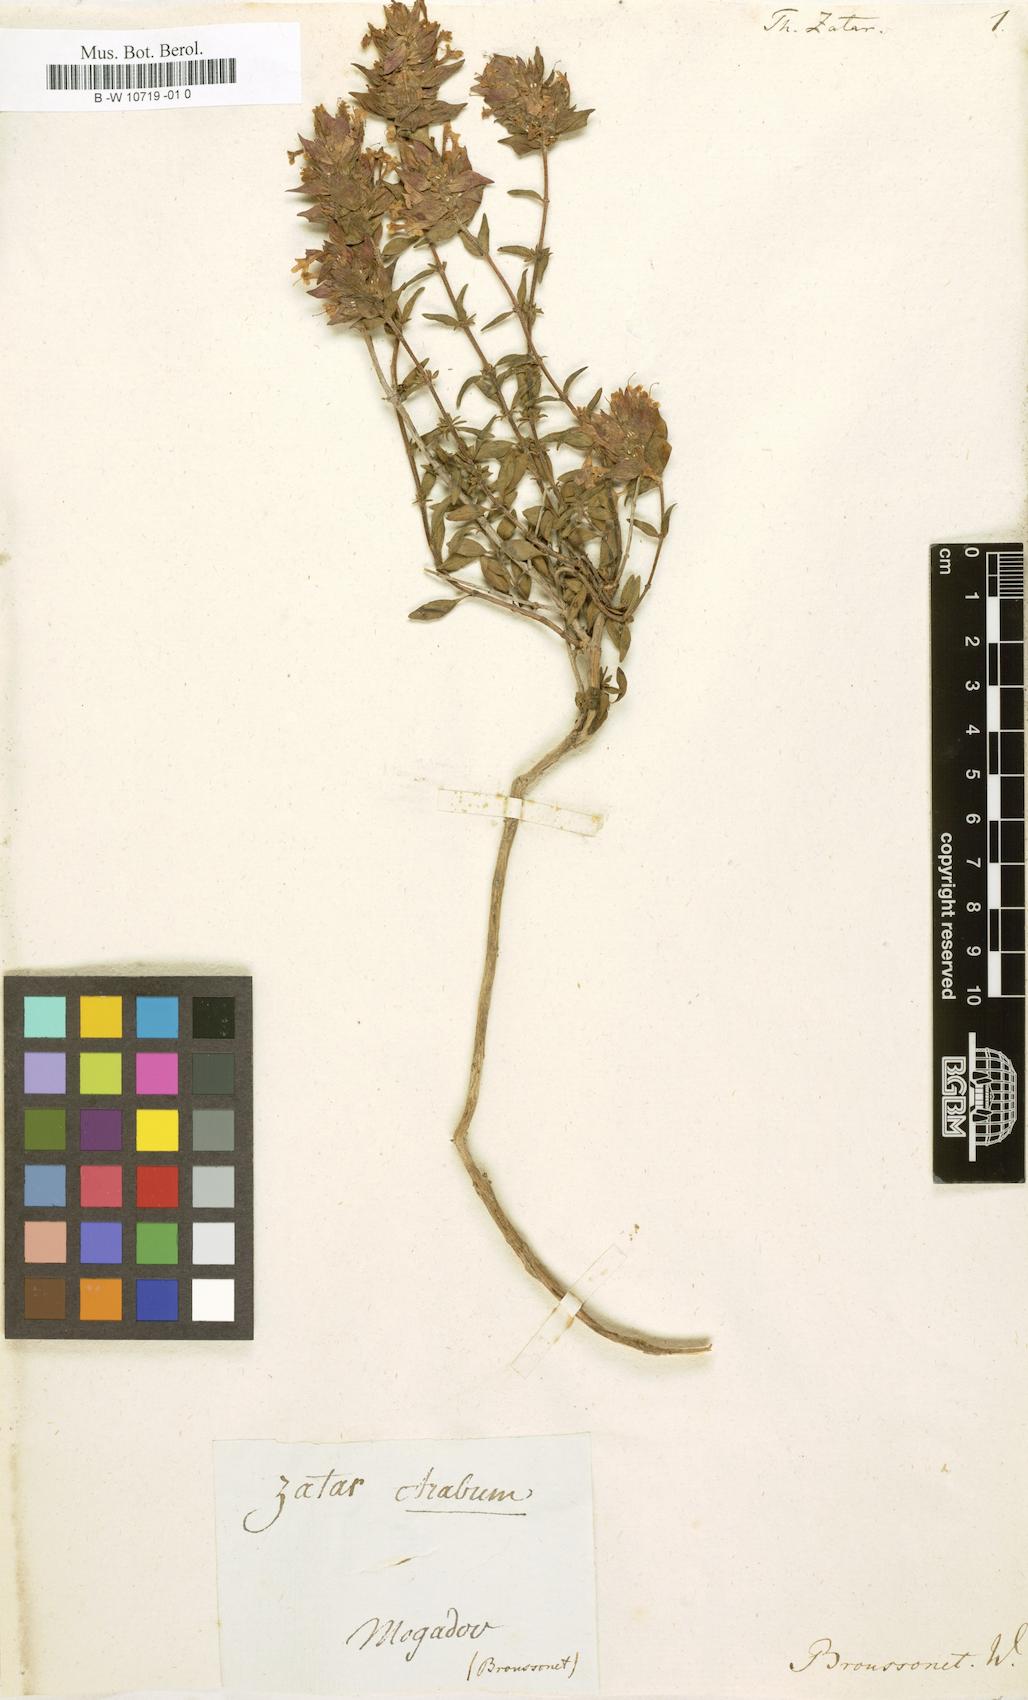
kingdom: Plantae
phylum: Tracheophyta
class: Magnoliopsida
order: Lamiales
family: Lamiaceae
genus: Thymus
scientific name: Thymus munbyanus
